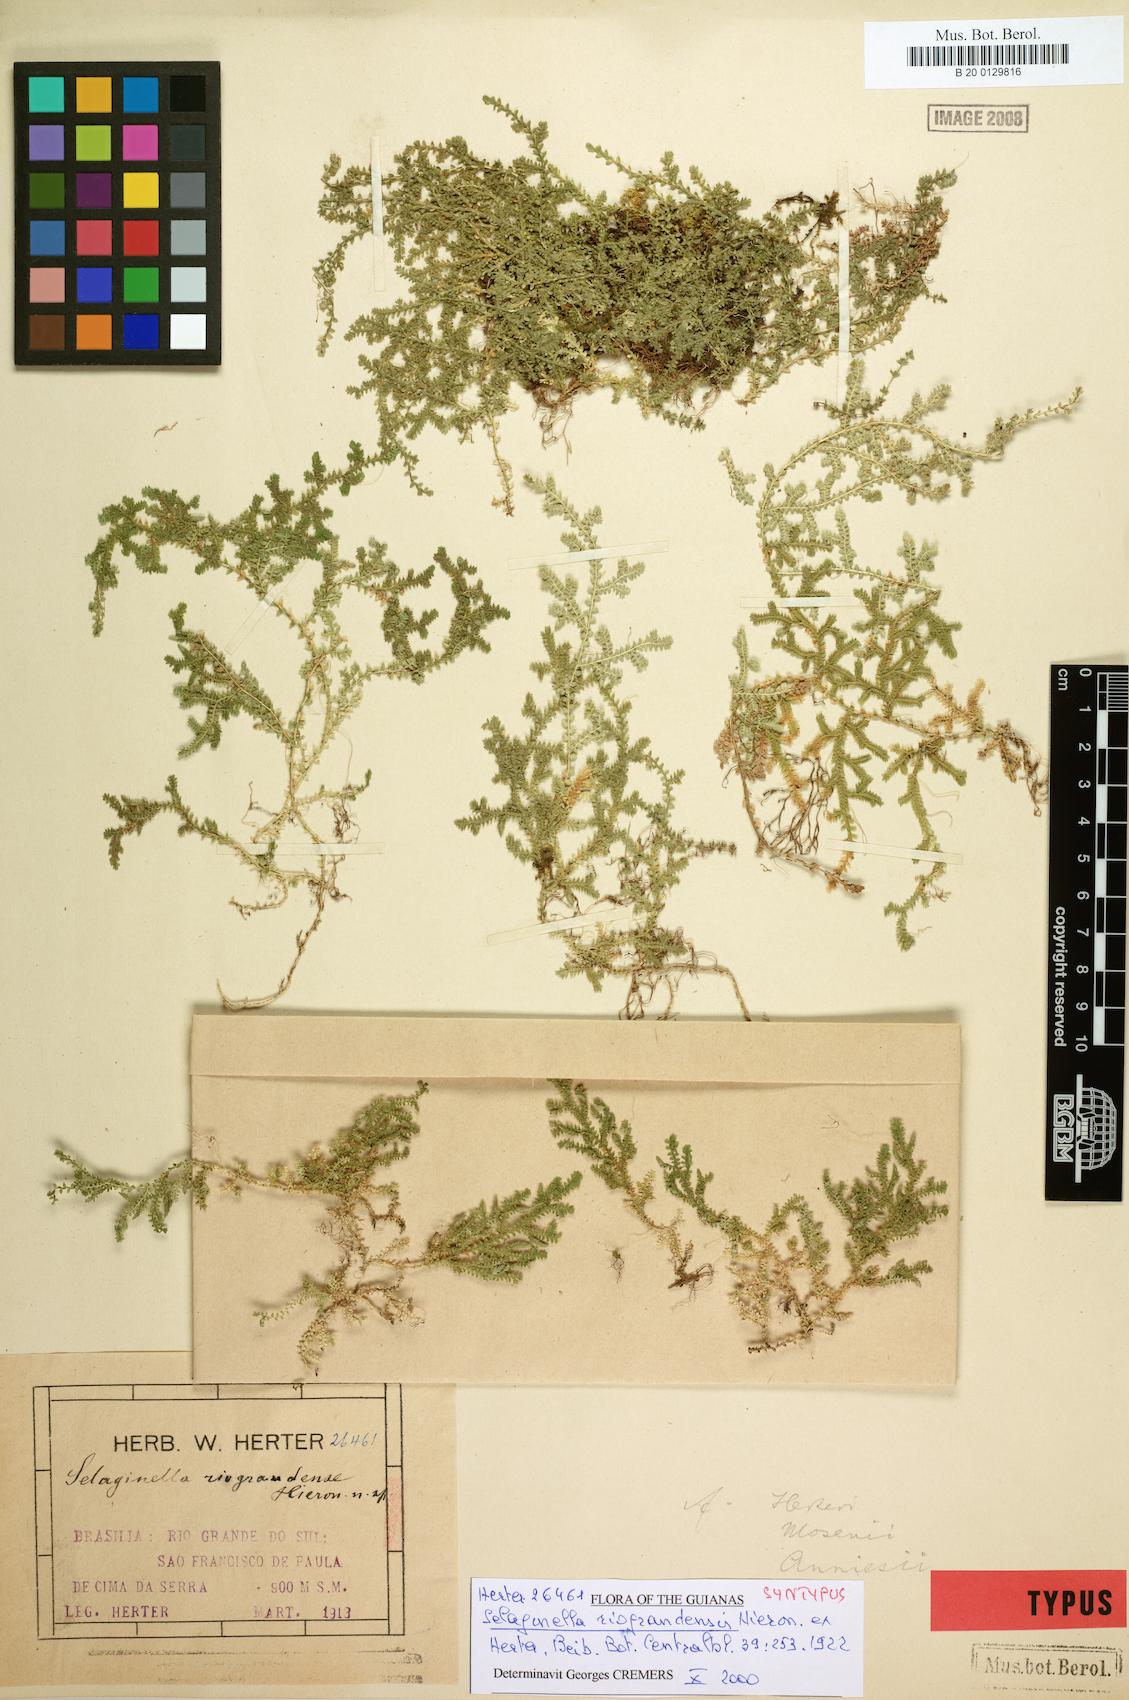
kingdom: Plantae
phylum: Tracheophyta
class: Lycopodiopsida
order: Selaginellales
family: Selaginellaceae
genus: Selaginella
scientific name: Selaginella marginata
